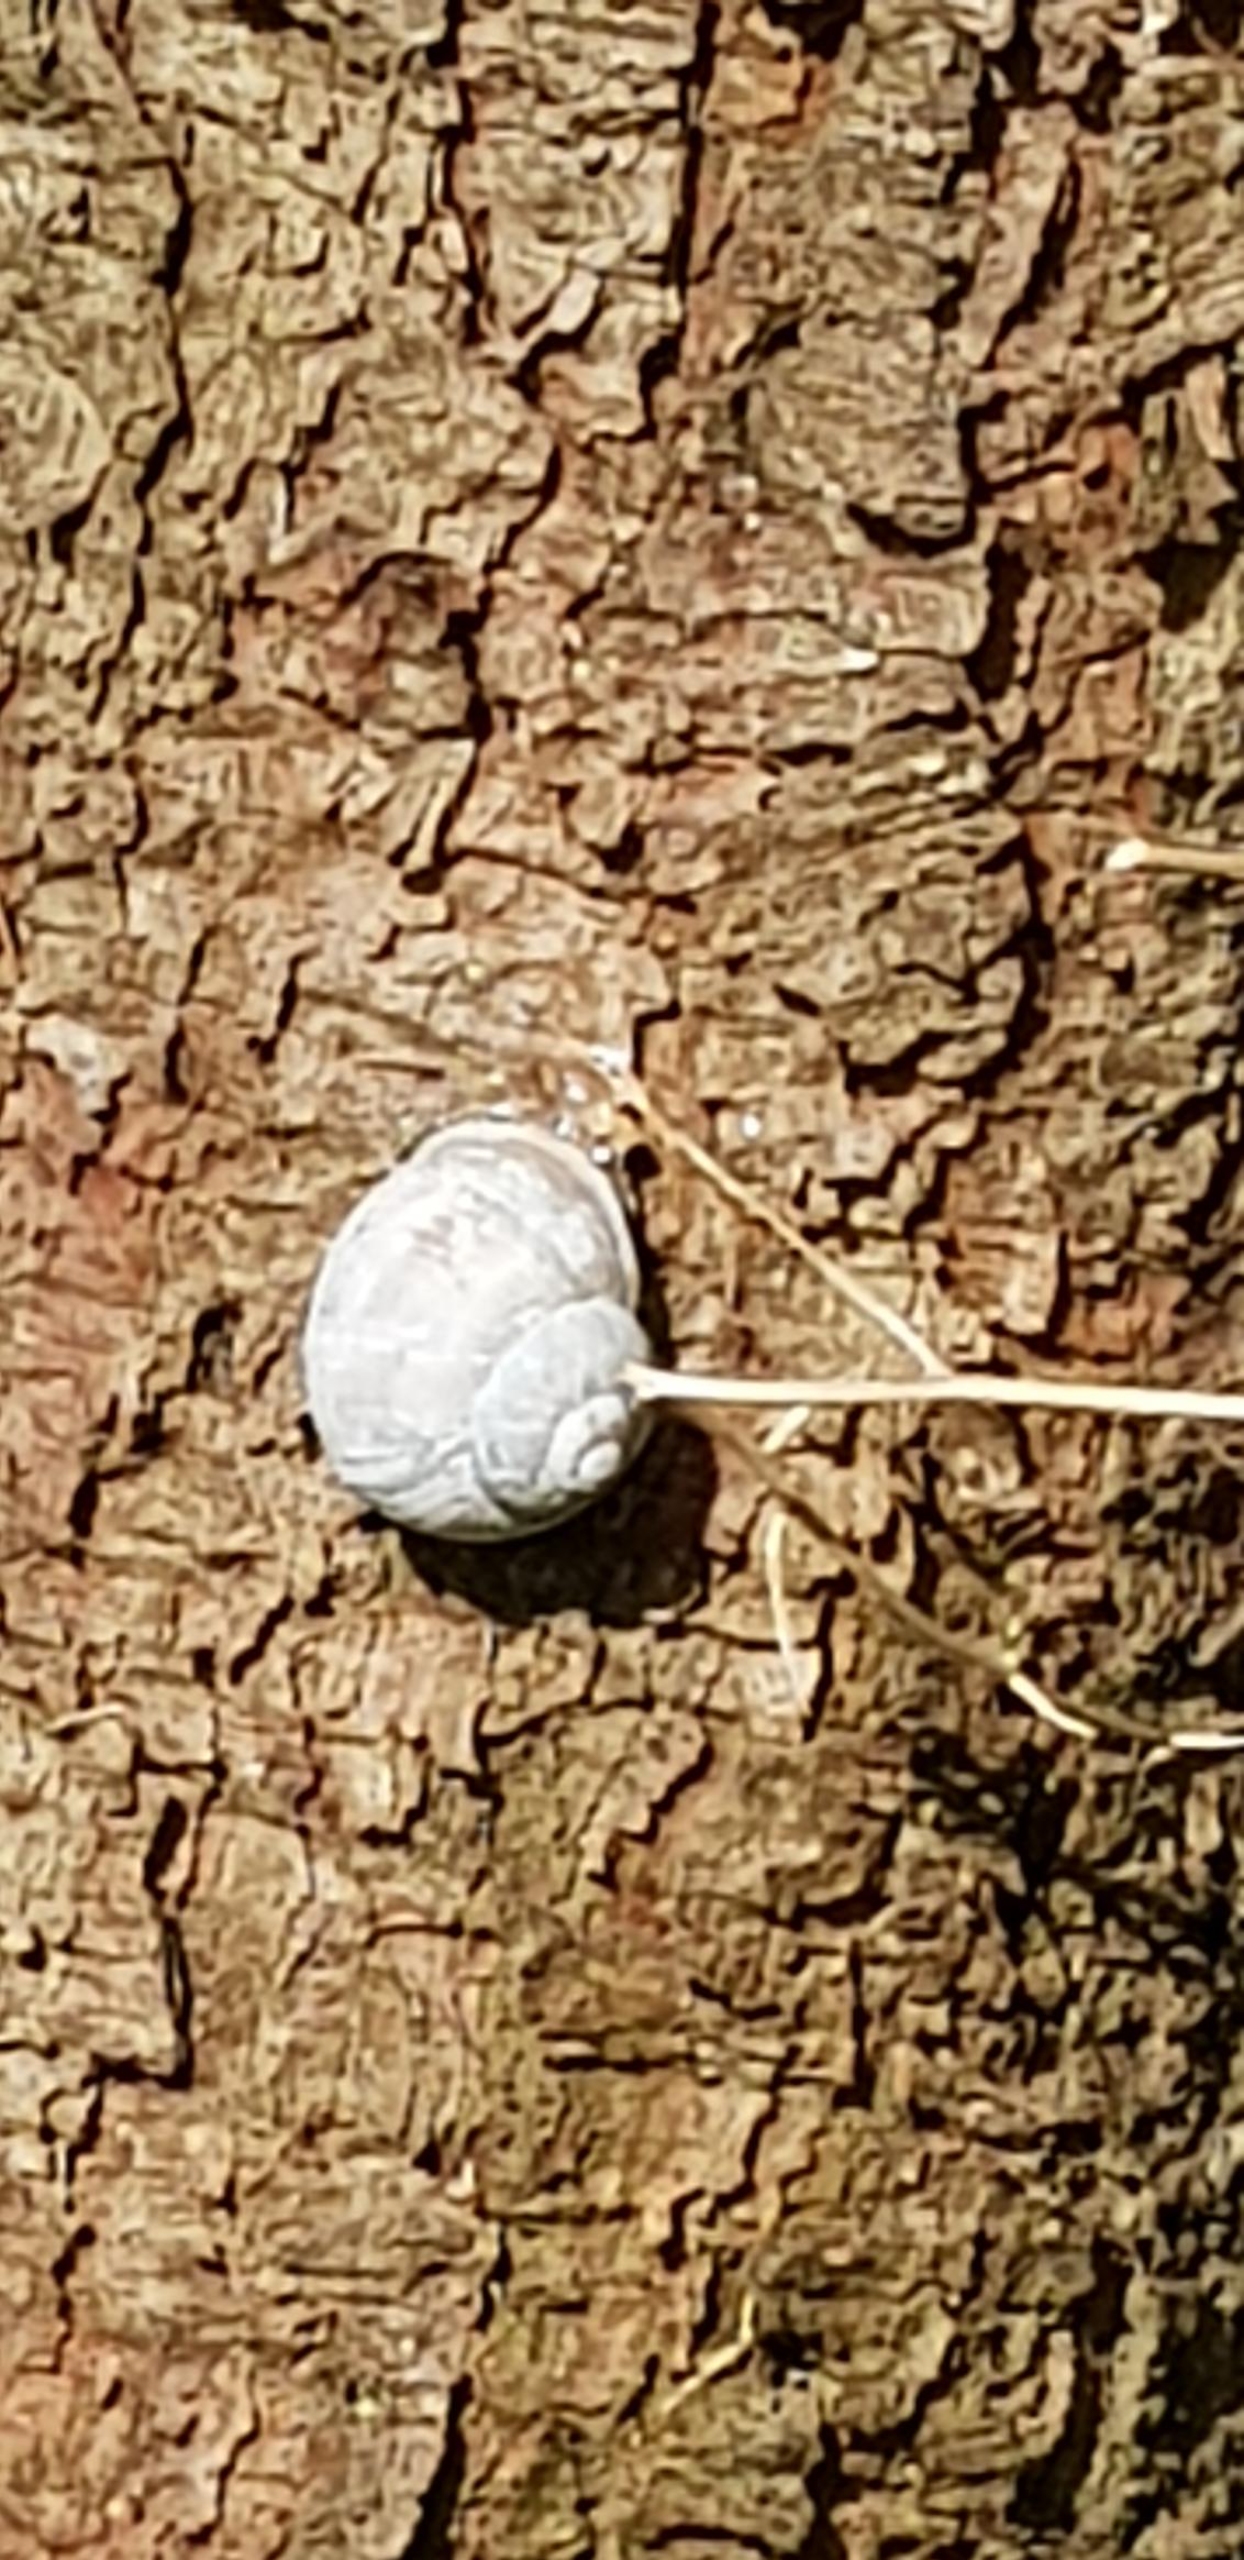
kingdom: Animalia
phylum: Mollusca
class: Gastropoda
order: Stylommatophora
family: Helicidae
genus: Helix
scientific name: Helix pomatia
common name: Vinbjergsnegl
